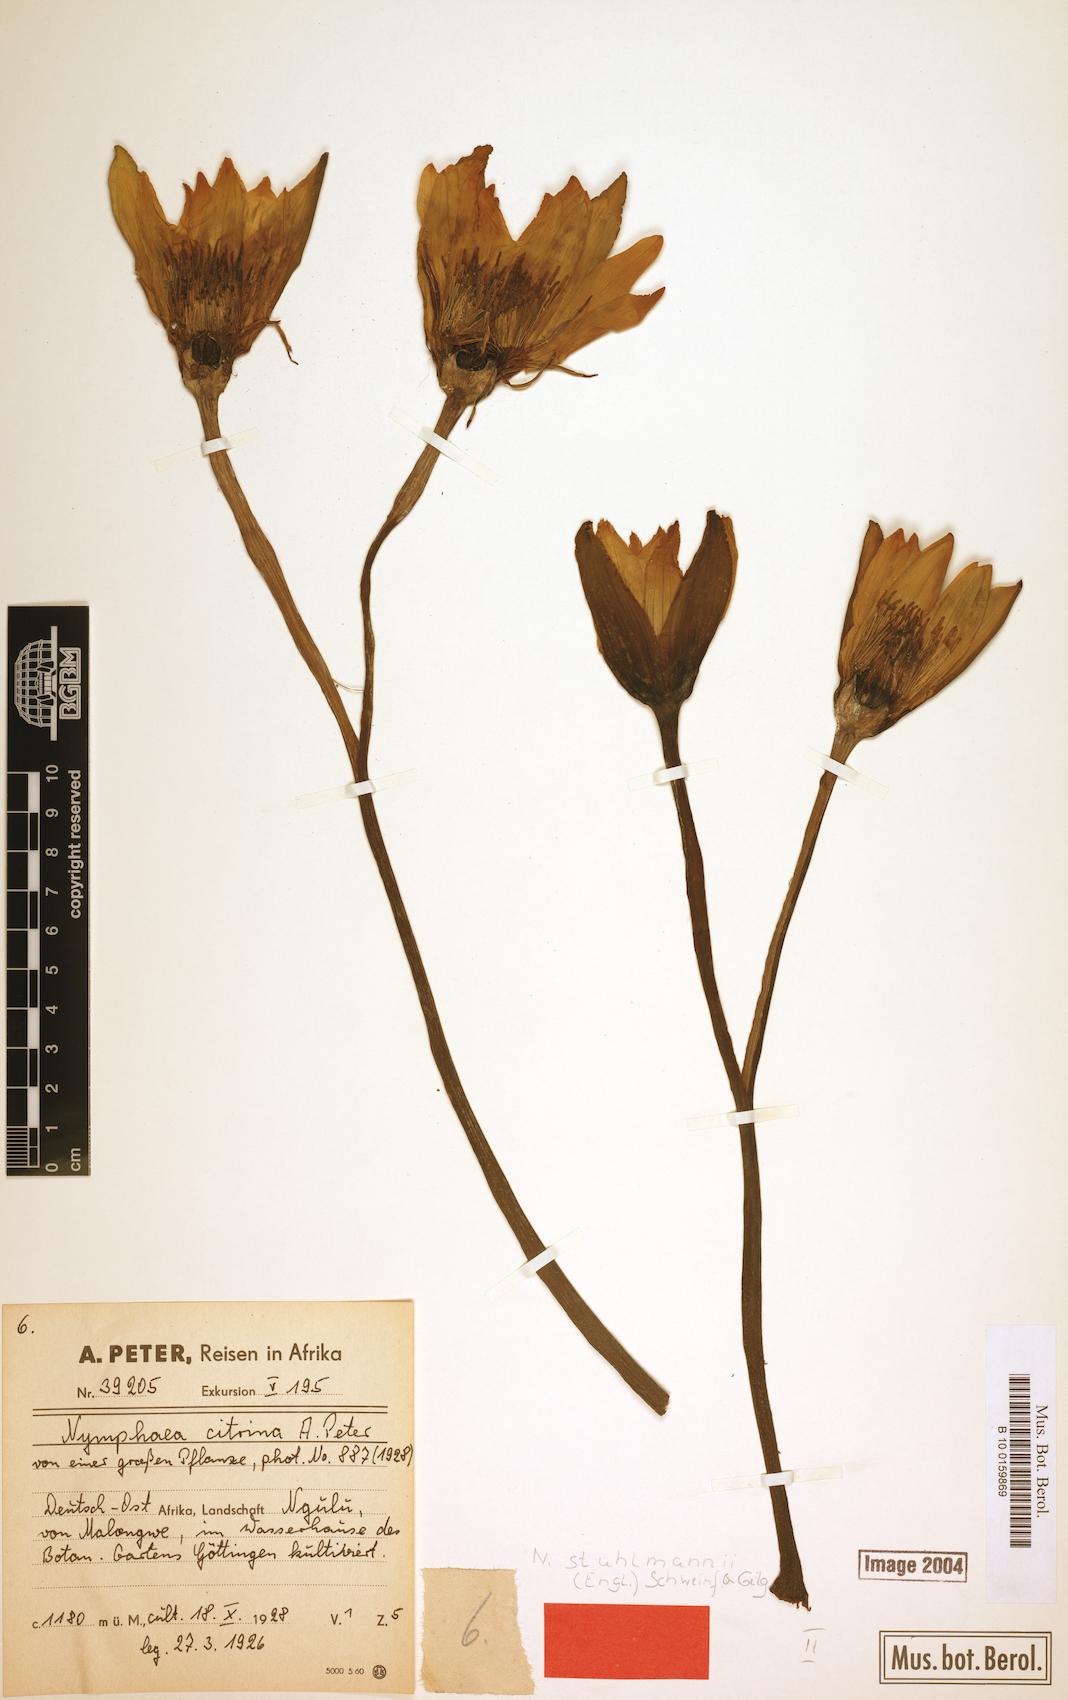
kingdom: Plantae
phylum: Tracheophyta
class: Magnoliopsida
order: Nymphaeales
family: Nymphaeaceae
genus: Nymphaea
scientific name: Nymphaea stuhlmannii
